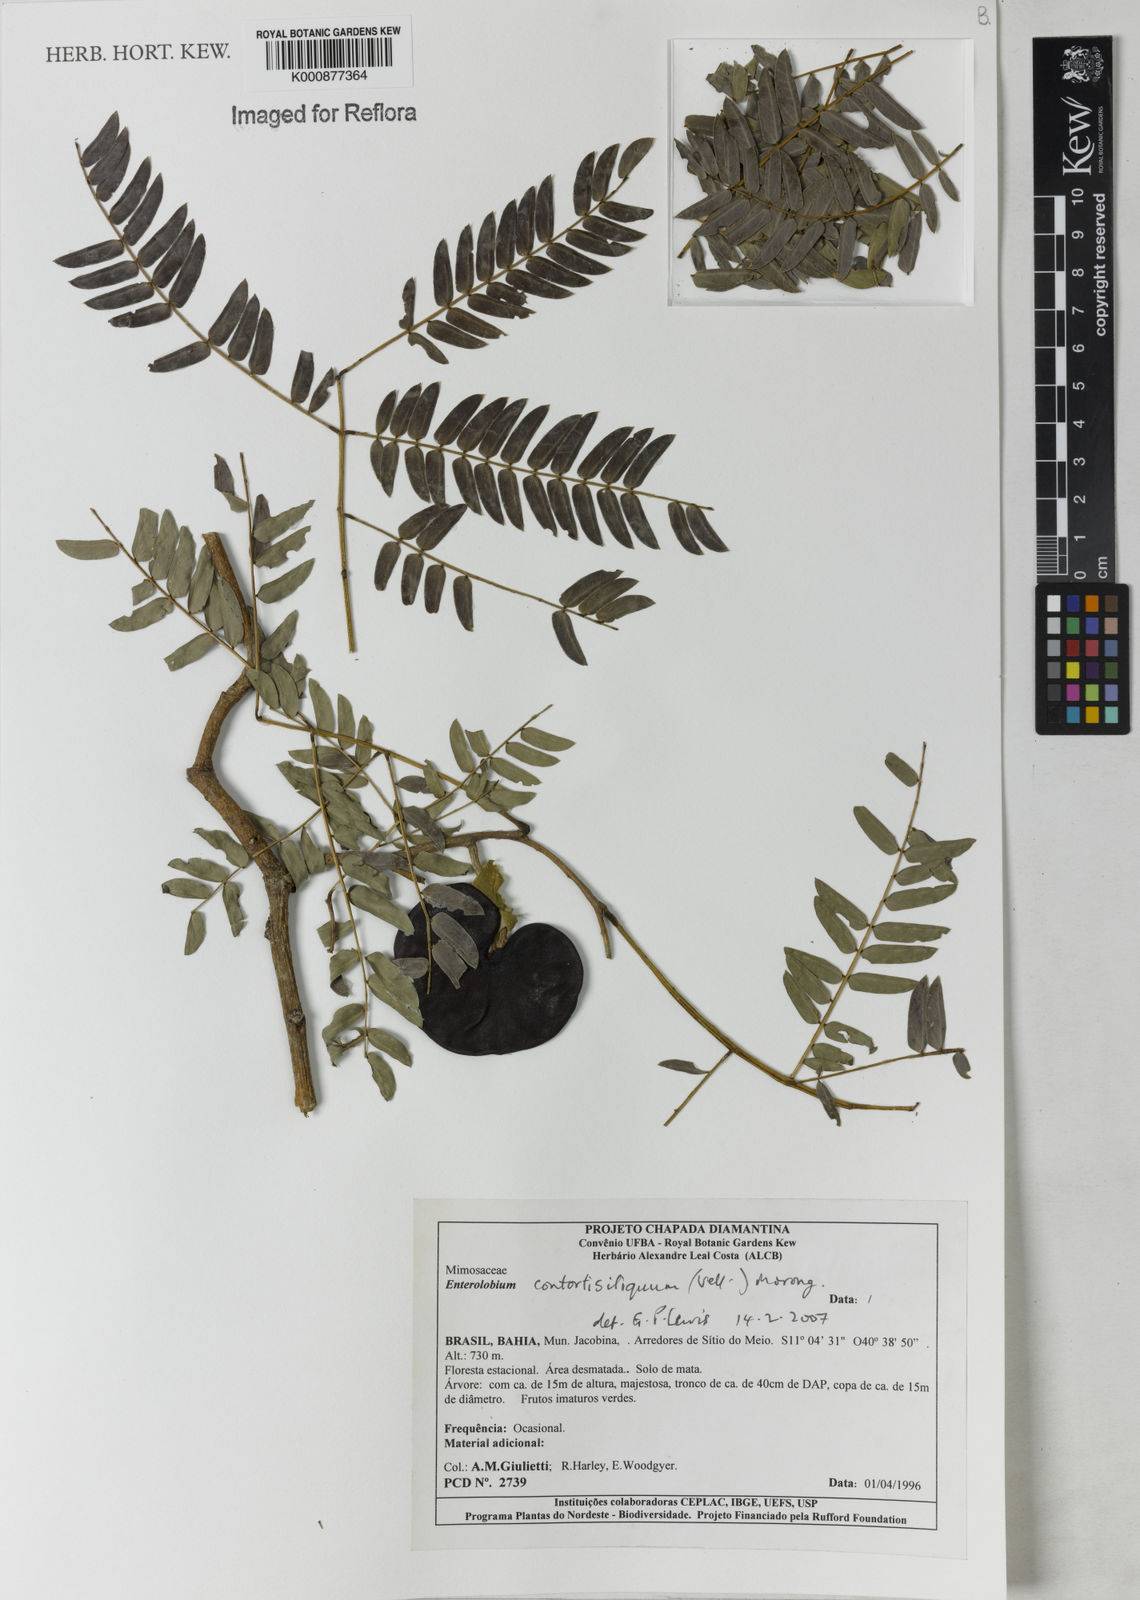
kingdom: Plantae
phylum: Tracheophyta
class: Magnoliopsida
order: Fabales
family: Fabaceae
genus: Enterolobium
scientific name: Enterolobium contortisiliquum
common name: Pacara earpod tree
